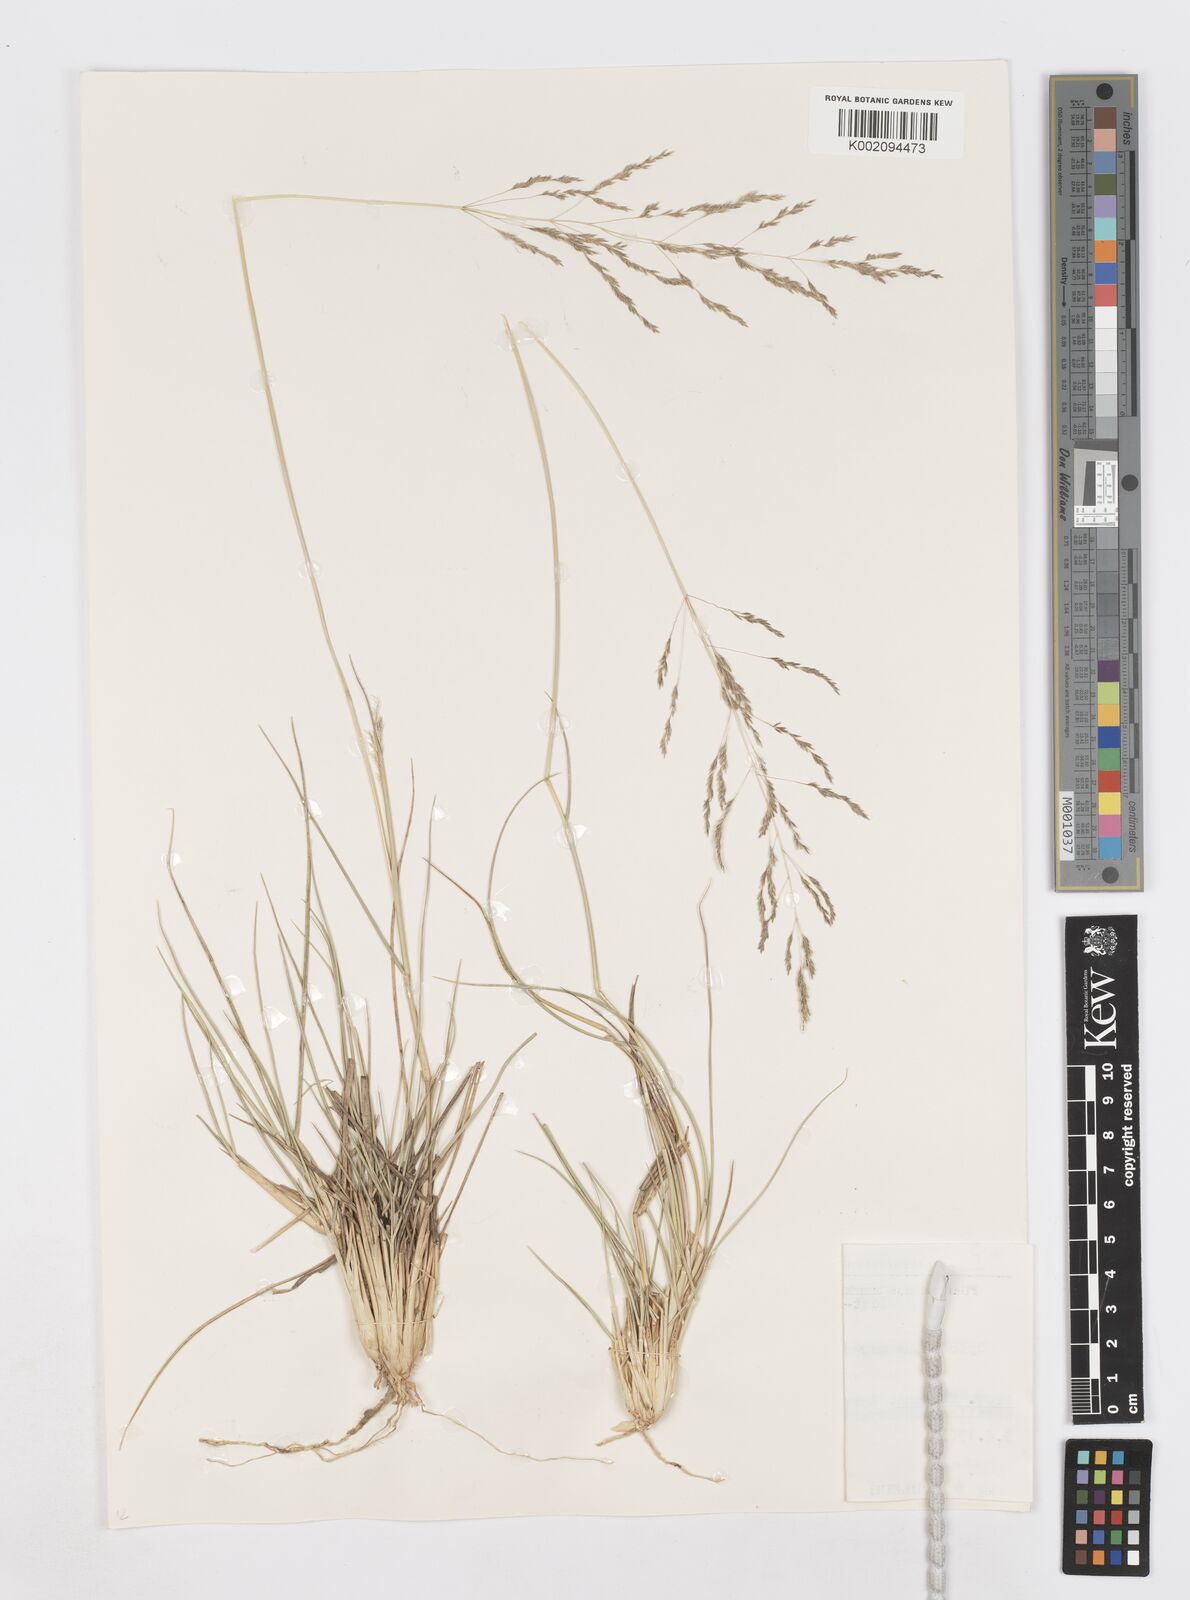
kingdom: Plantae
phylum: Tracheophyta
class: Liliopsida
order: Poales
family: Poaceae
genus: Sporobolus
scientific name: Sporobolus ioclados
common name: Pan dropseed
